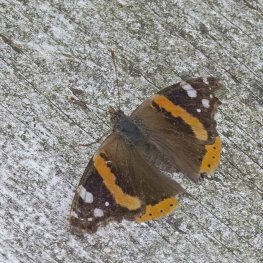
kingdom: Animalia
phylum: Arthropoda
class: Insecta
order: Lepidoptera
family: Nymphalidae
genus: Vanessa
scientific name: Vanessa atalanta
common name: Red Admiral
